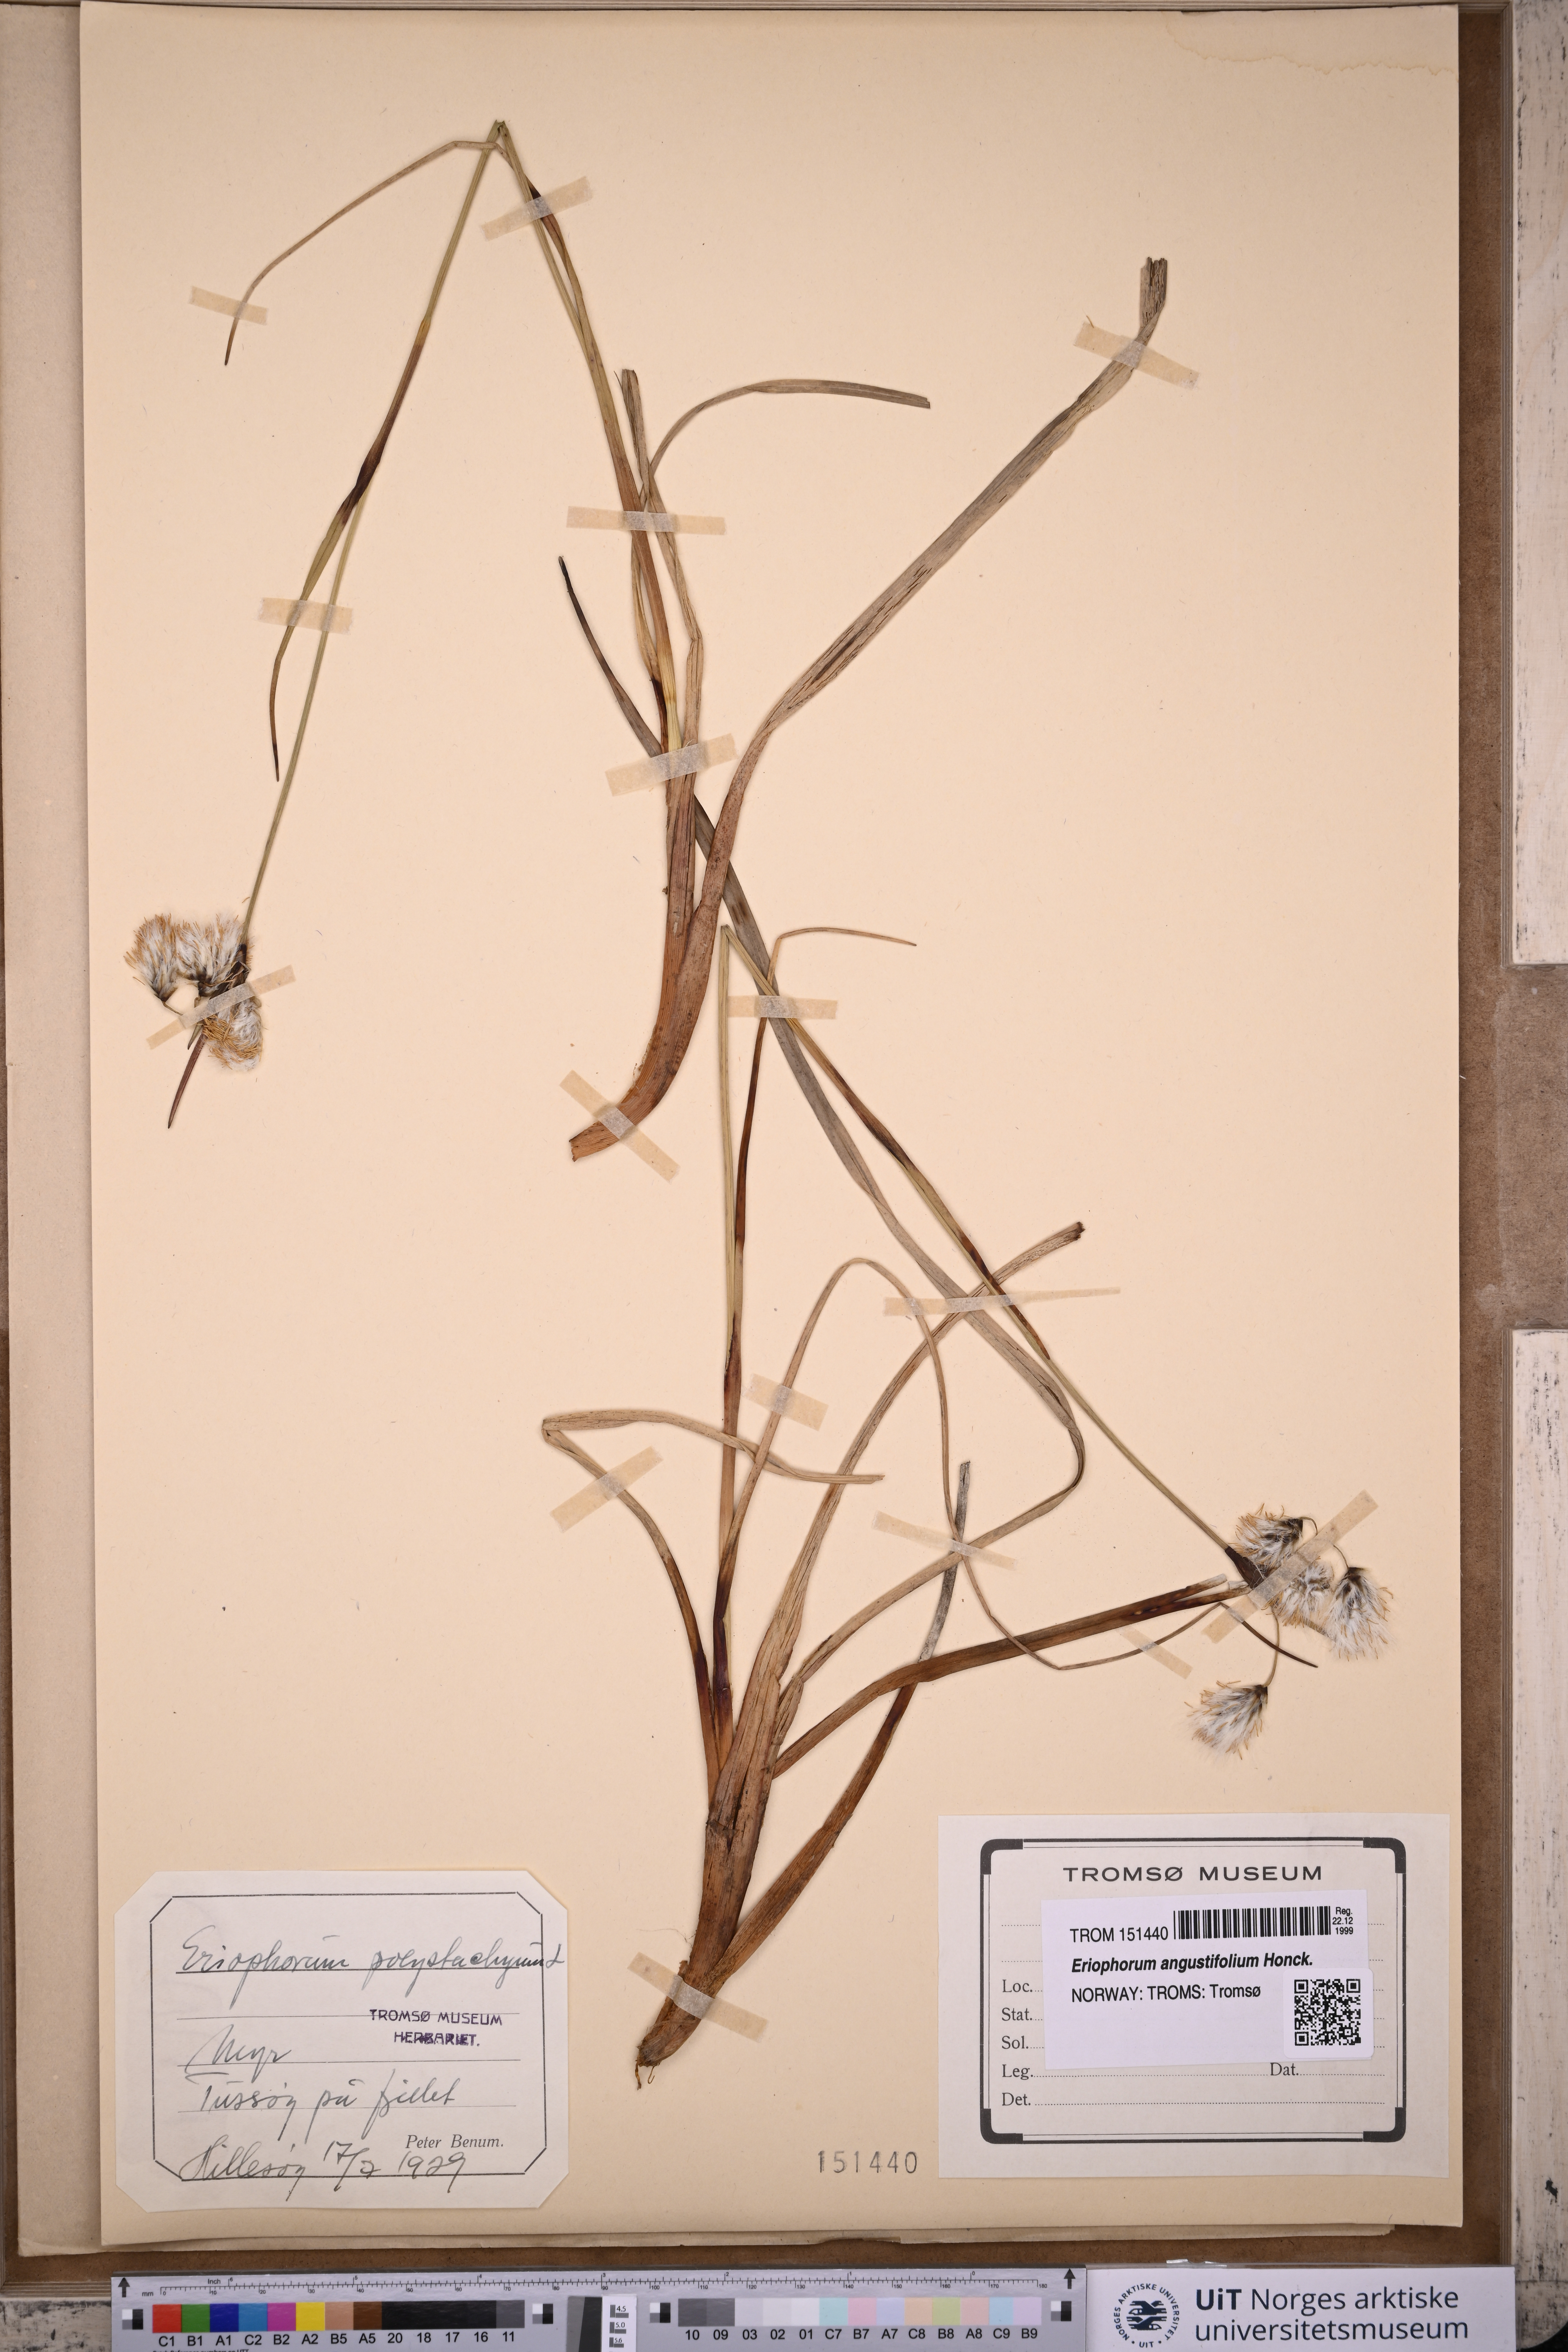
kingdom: Plantae
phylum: Tracheophyta
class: Liliopsida
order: Poales
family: Cyperaceae
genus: Eriophorum
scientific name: Eriophorum angustifolium
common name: Common cottongrass
